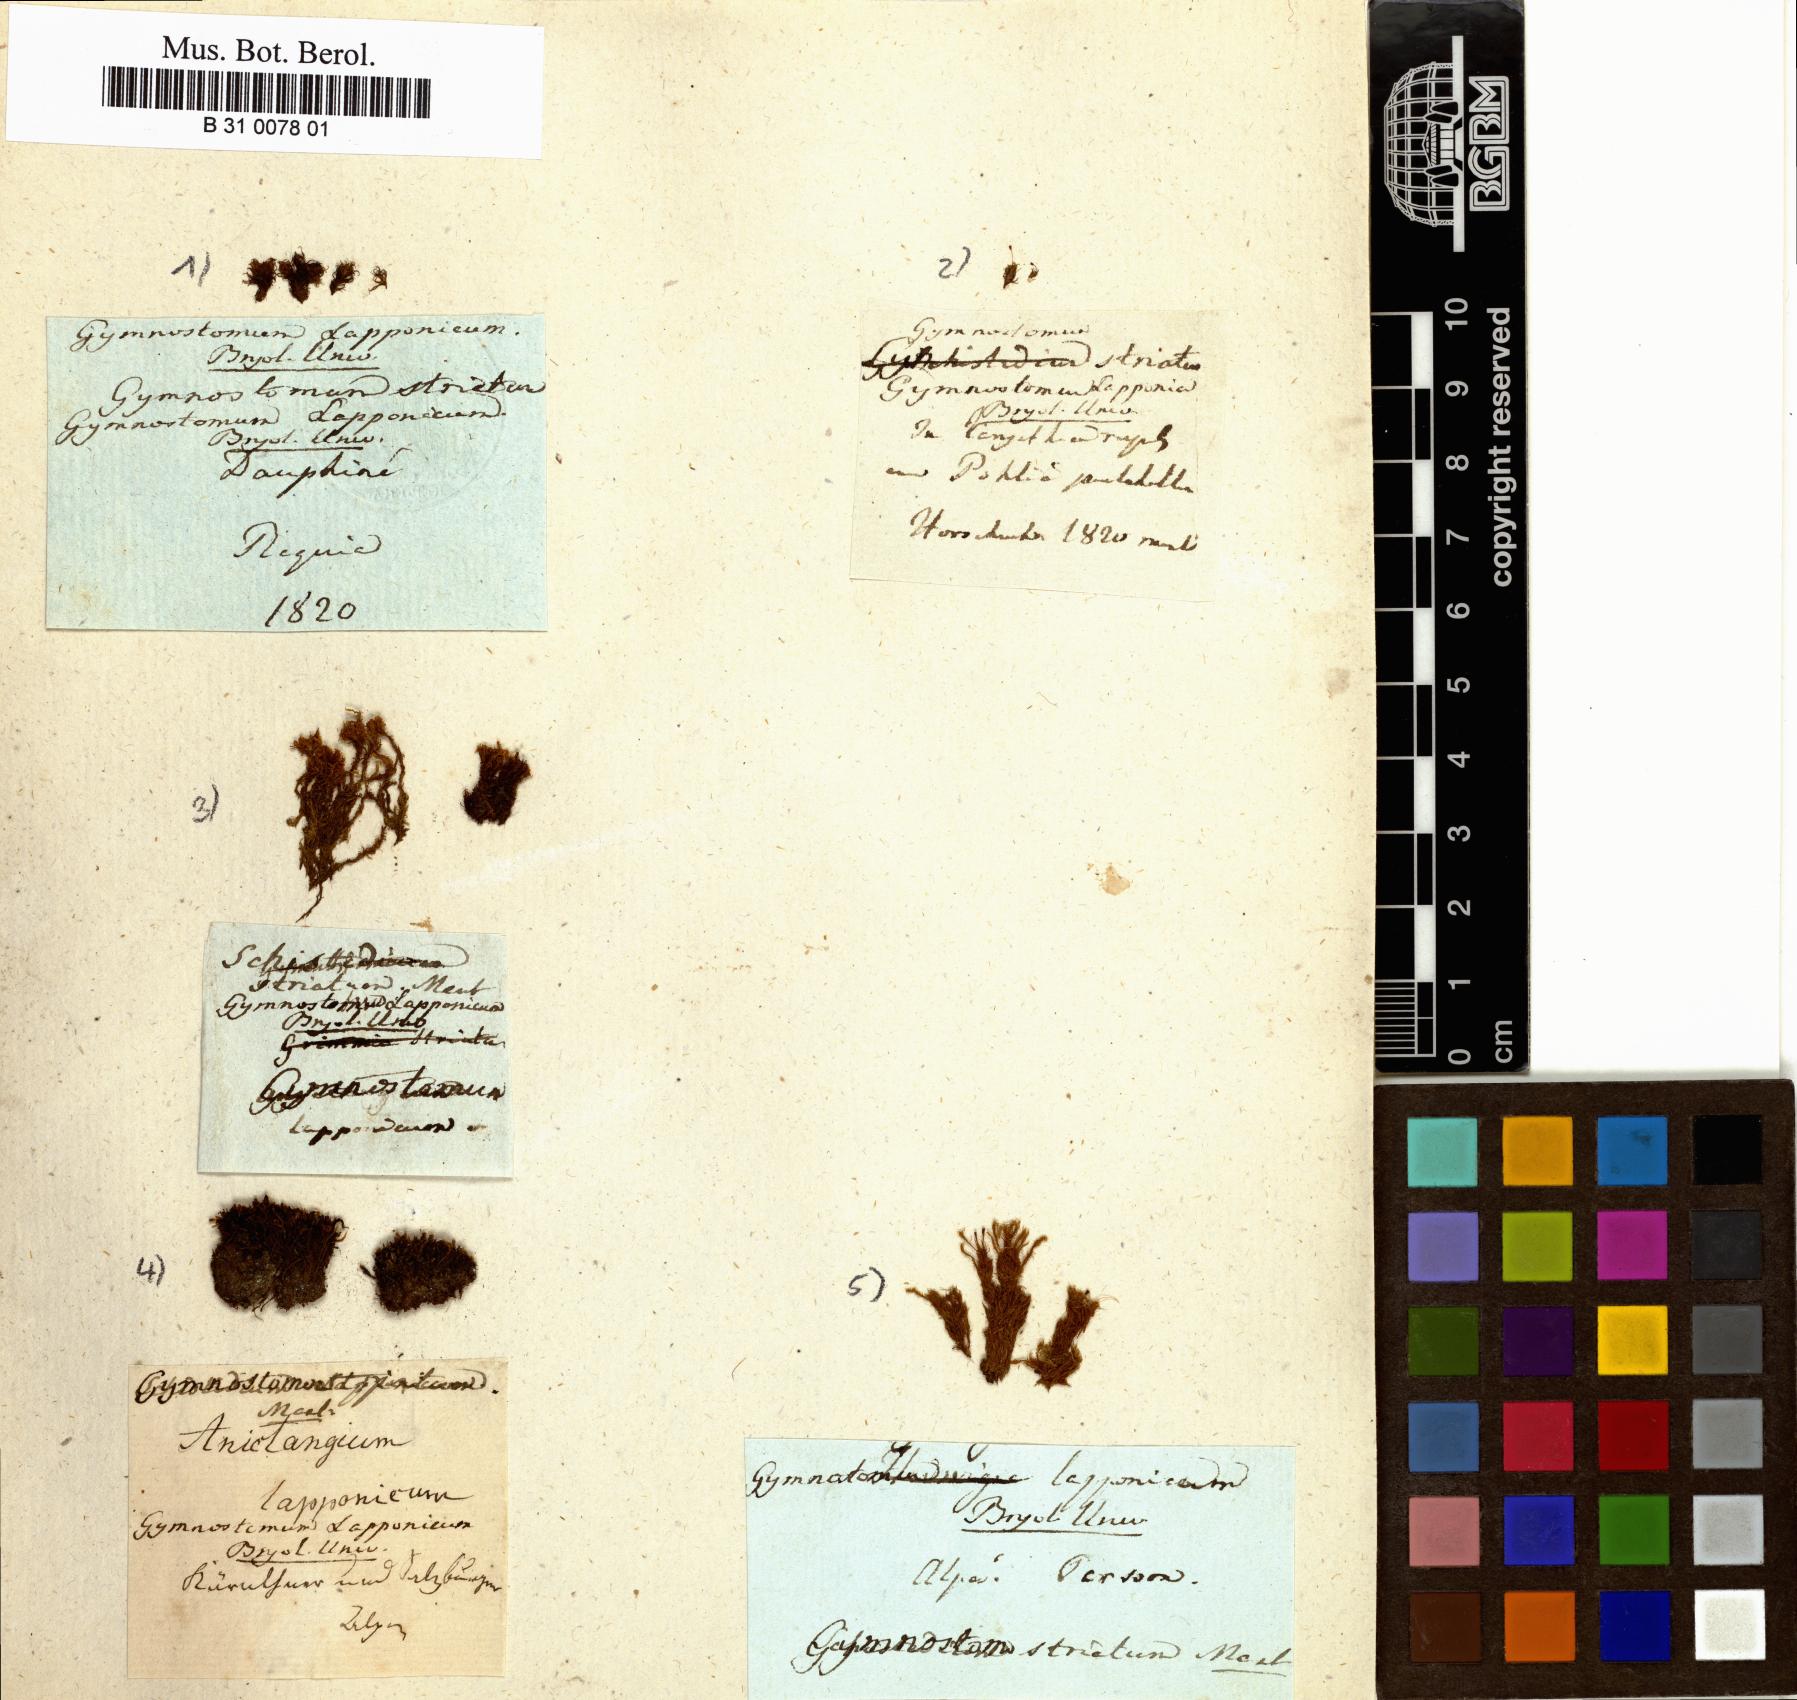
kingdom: Plantae
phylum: Bryophyta
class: Bryopsida
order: Dicranales
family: Rhabdoweisiaceae
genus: Rhabdoweisia
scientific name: Rhabdoweisia fugax
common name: Dwarf streak-moss
